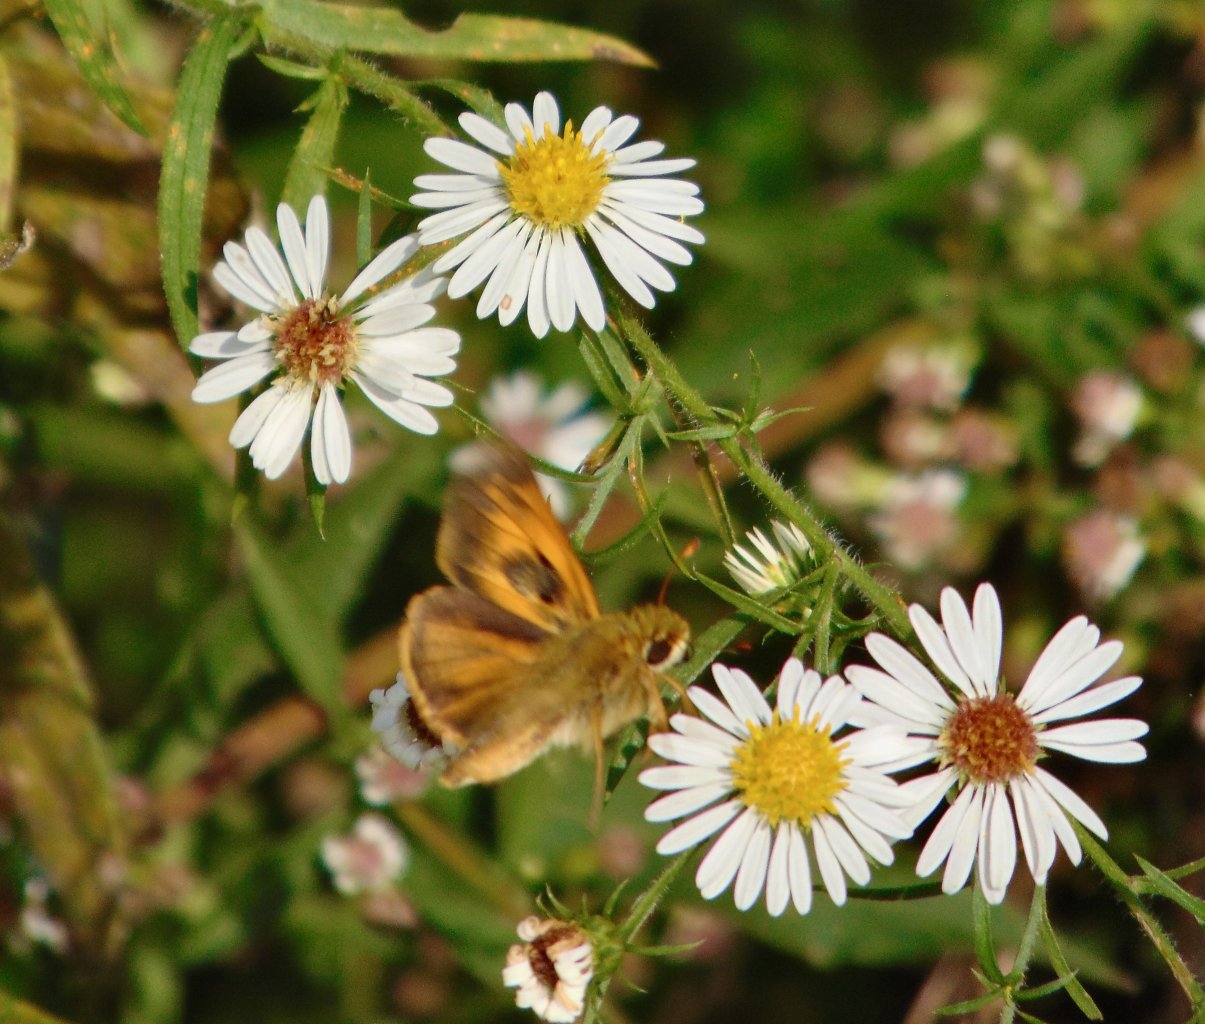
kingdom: Animalia
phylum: Arthropoda
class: Insecta
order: Lepidoptera
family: Hesperiidae
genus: Atalopedes
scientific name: Atalopedes campestris
